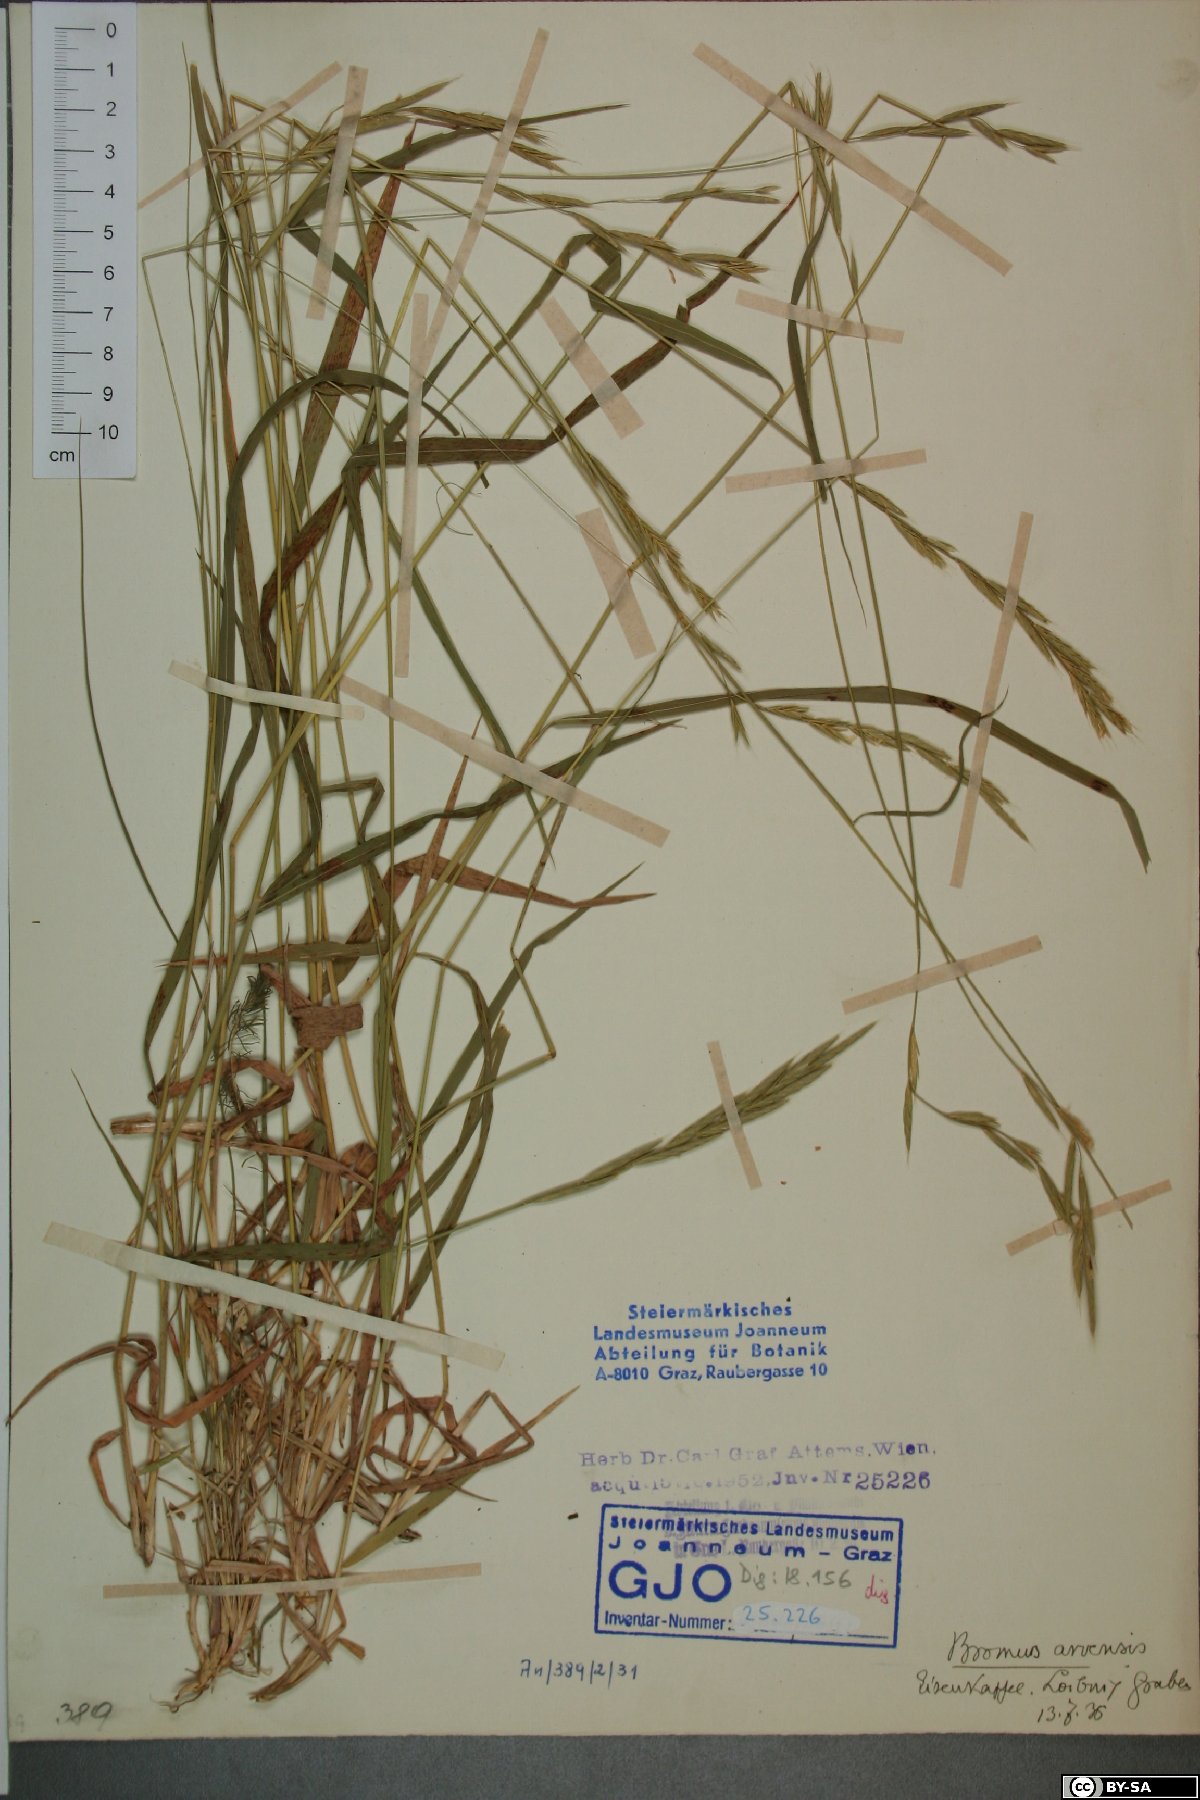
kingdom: Plantae
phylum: Tracheophyta
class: Liliopsida
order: Poales
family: Poaceae
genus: Bromus
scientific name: Bromus arvensis
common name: Field brome
